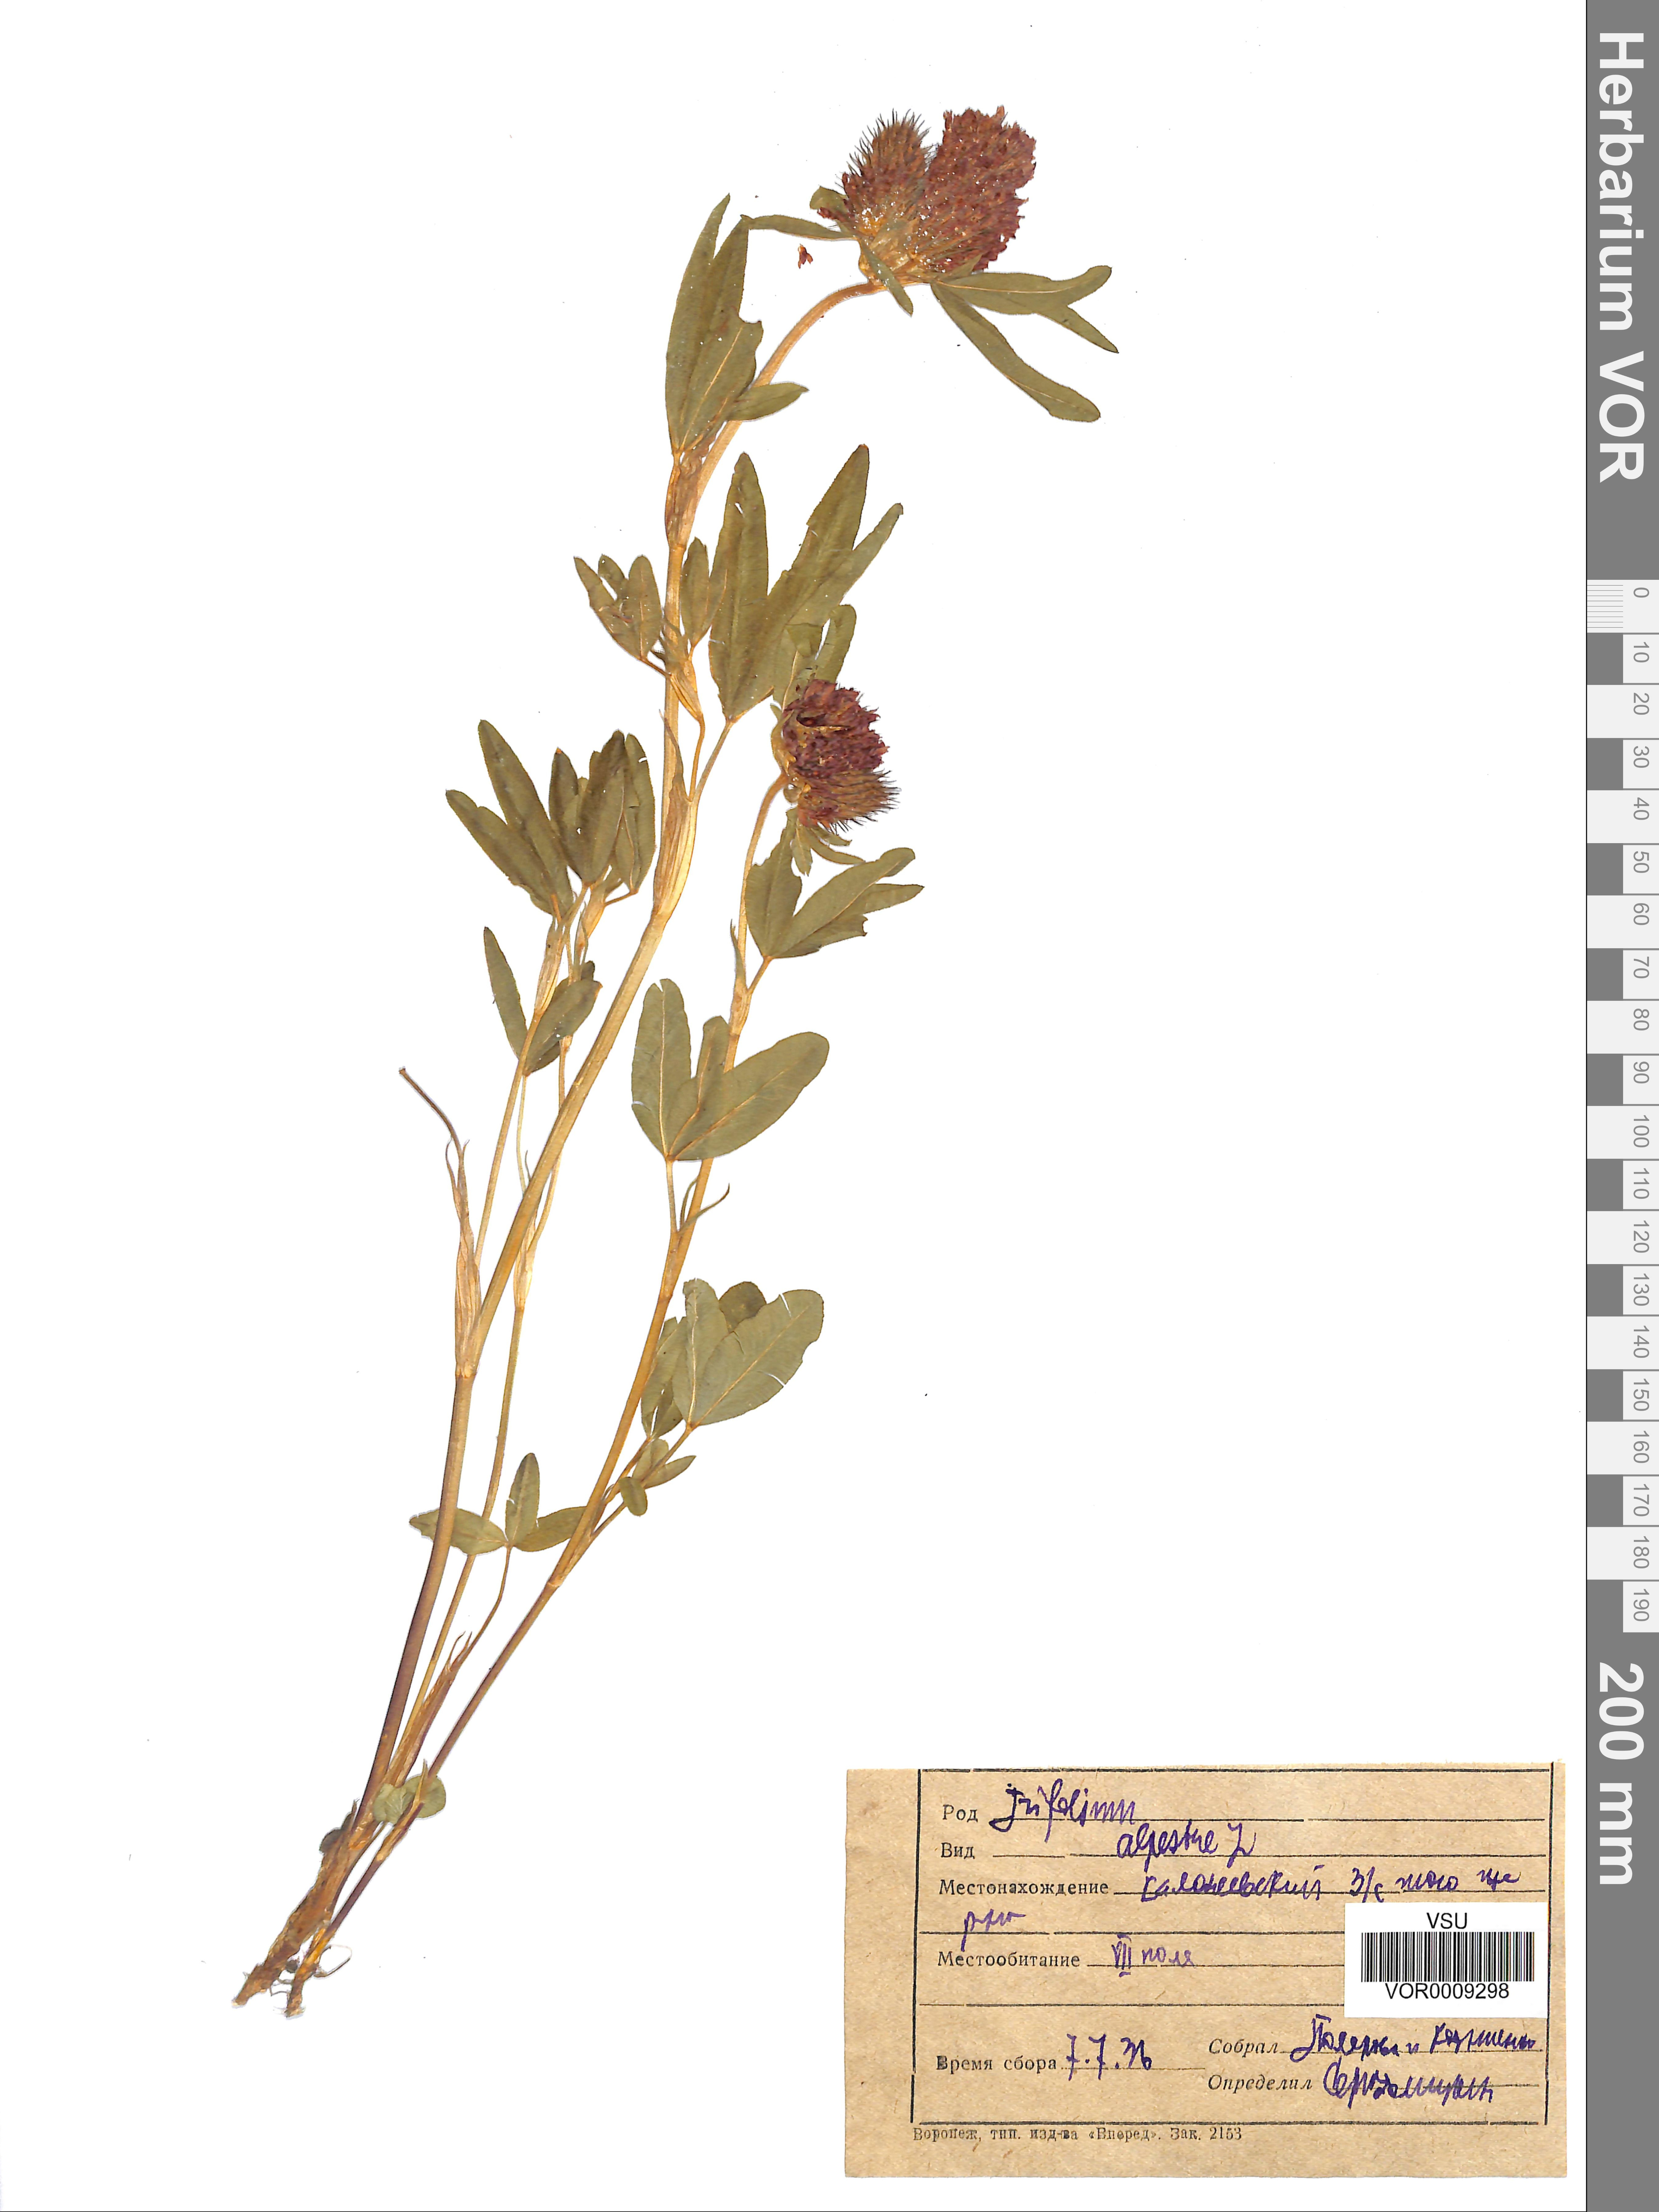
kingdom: Plantae
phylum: Tracheophyta
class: Magnoliopsida
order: Fabales
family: Fabaceae
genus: Trifolium
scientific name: Trifolium alpestre
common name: Owl-head clover
